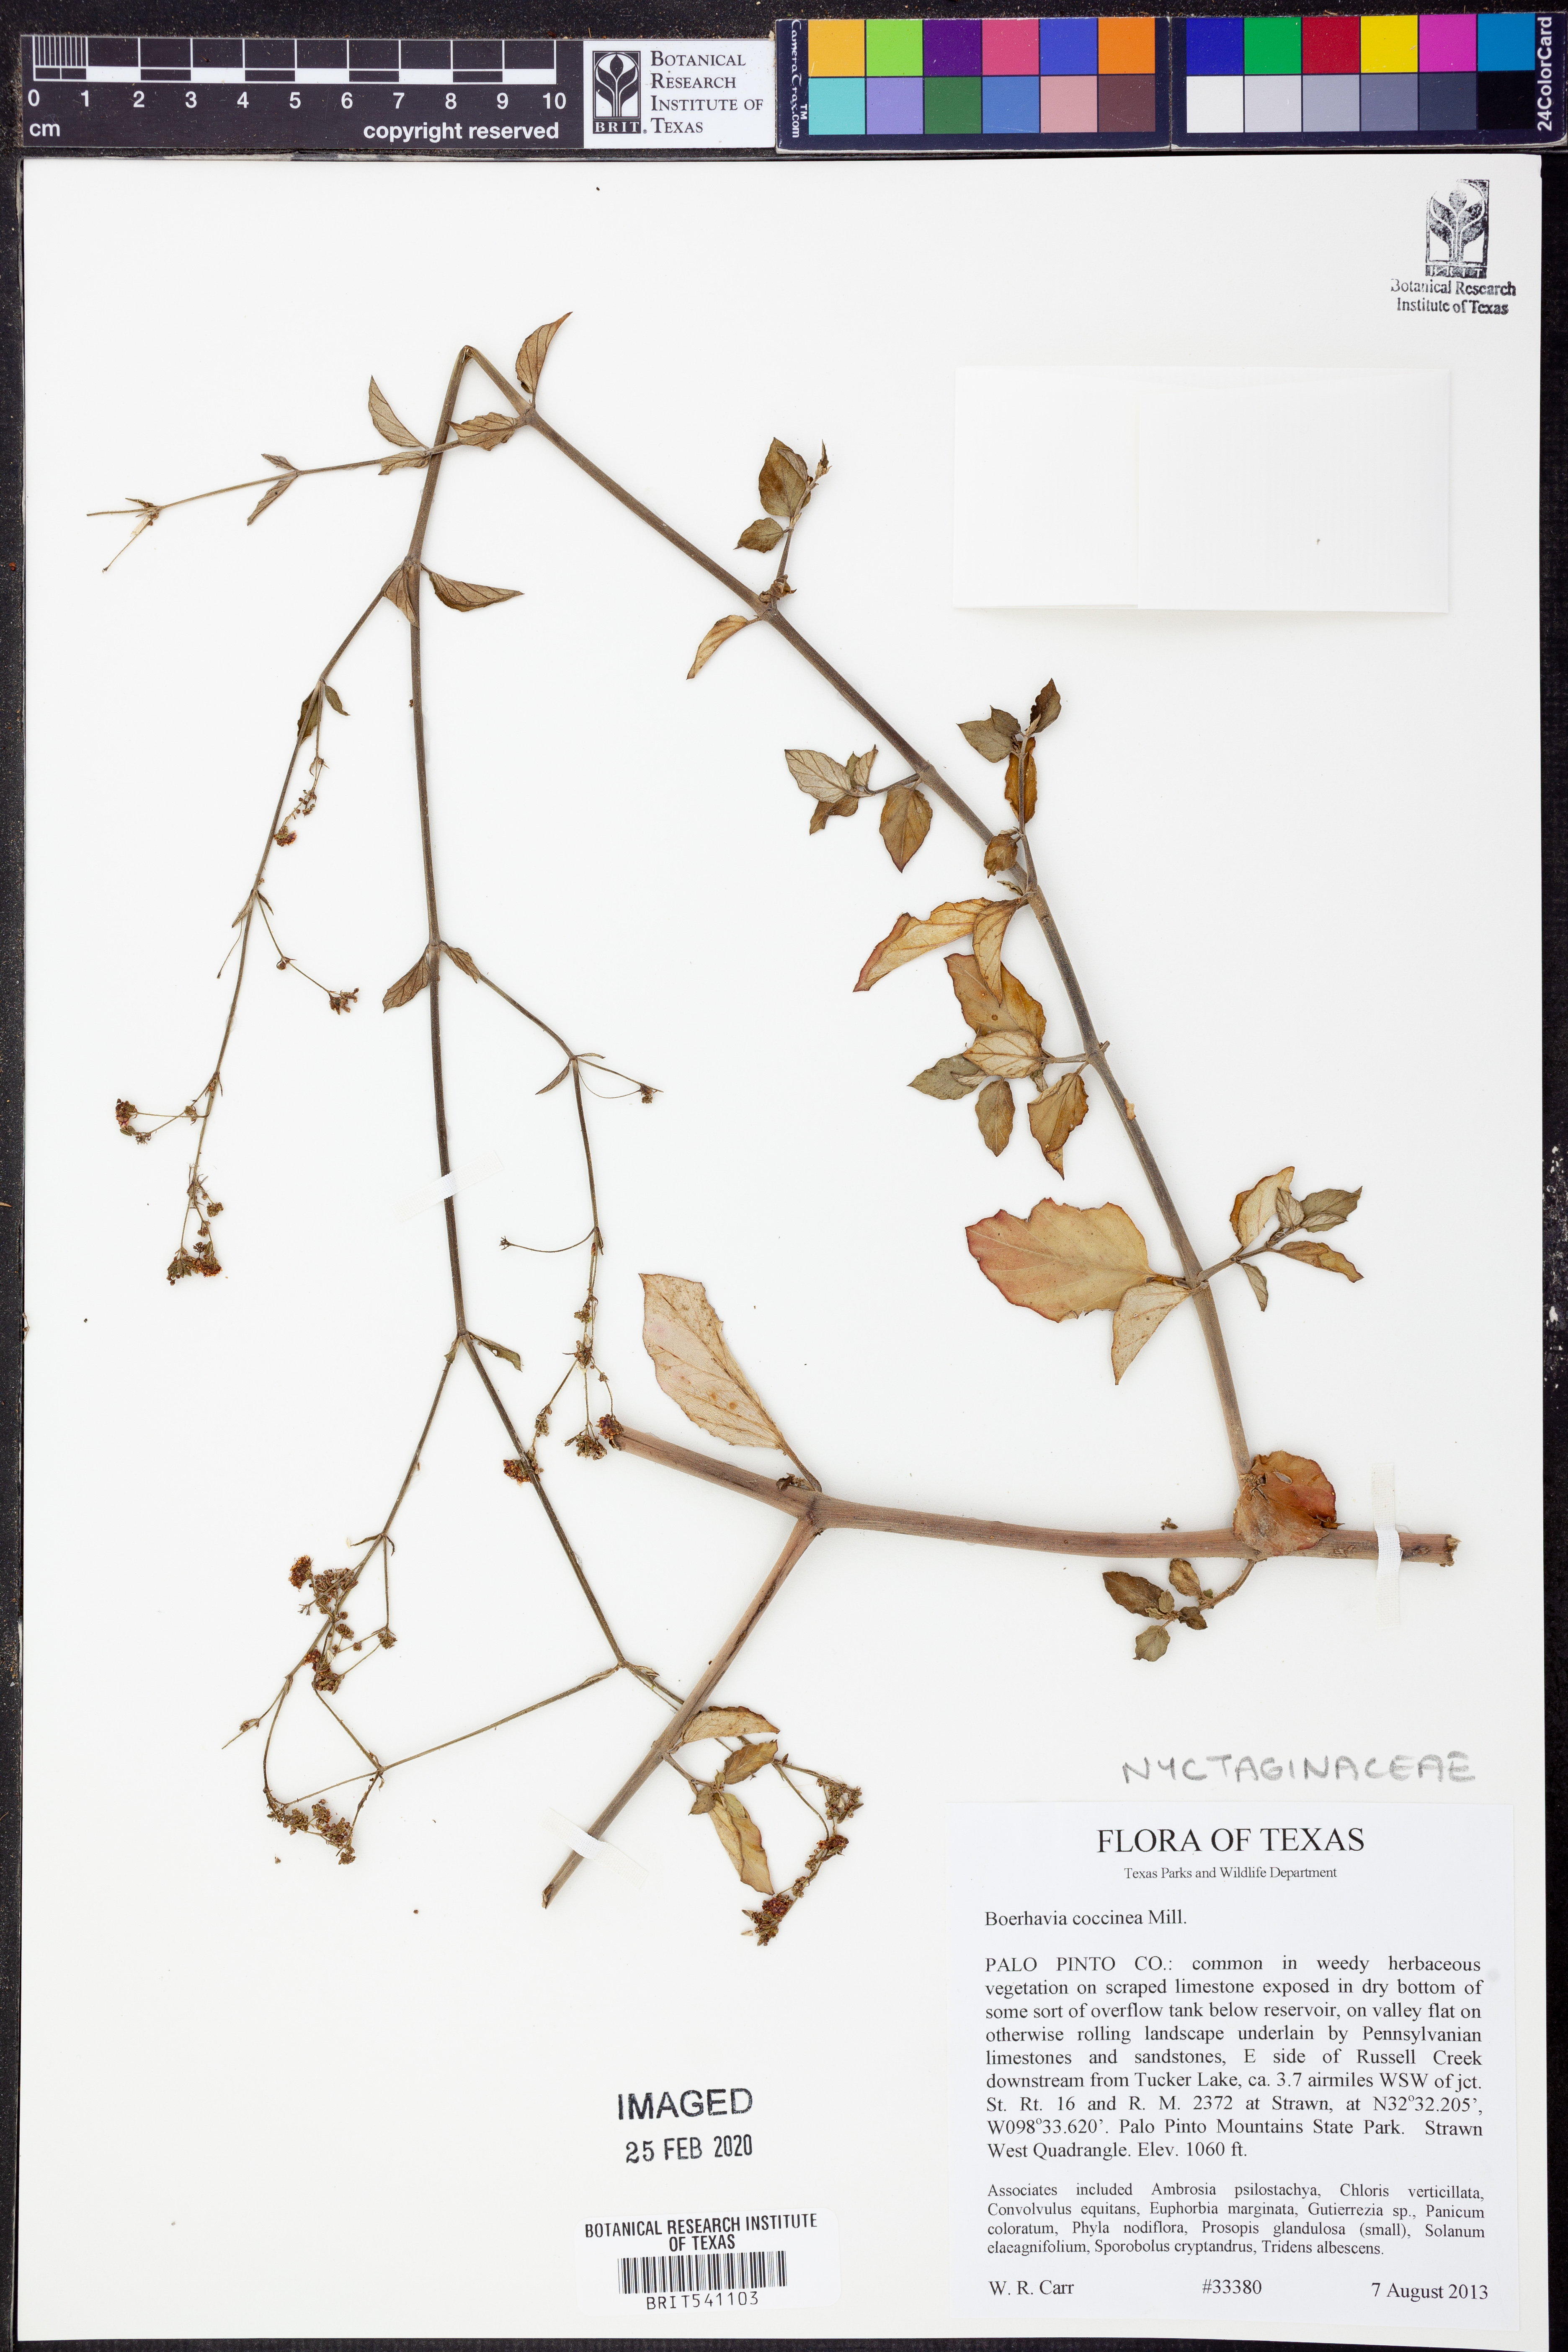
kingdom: Plantae
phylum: Tracheophyta
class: Magnoliopsida
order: Caryophyllales
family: Nyctaginaceae
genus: Boerhavia
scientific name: Boerhavia coccinea
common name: Scarlet spiderling
